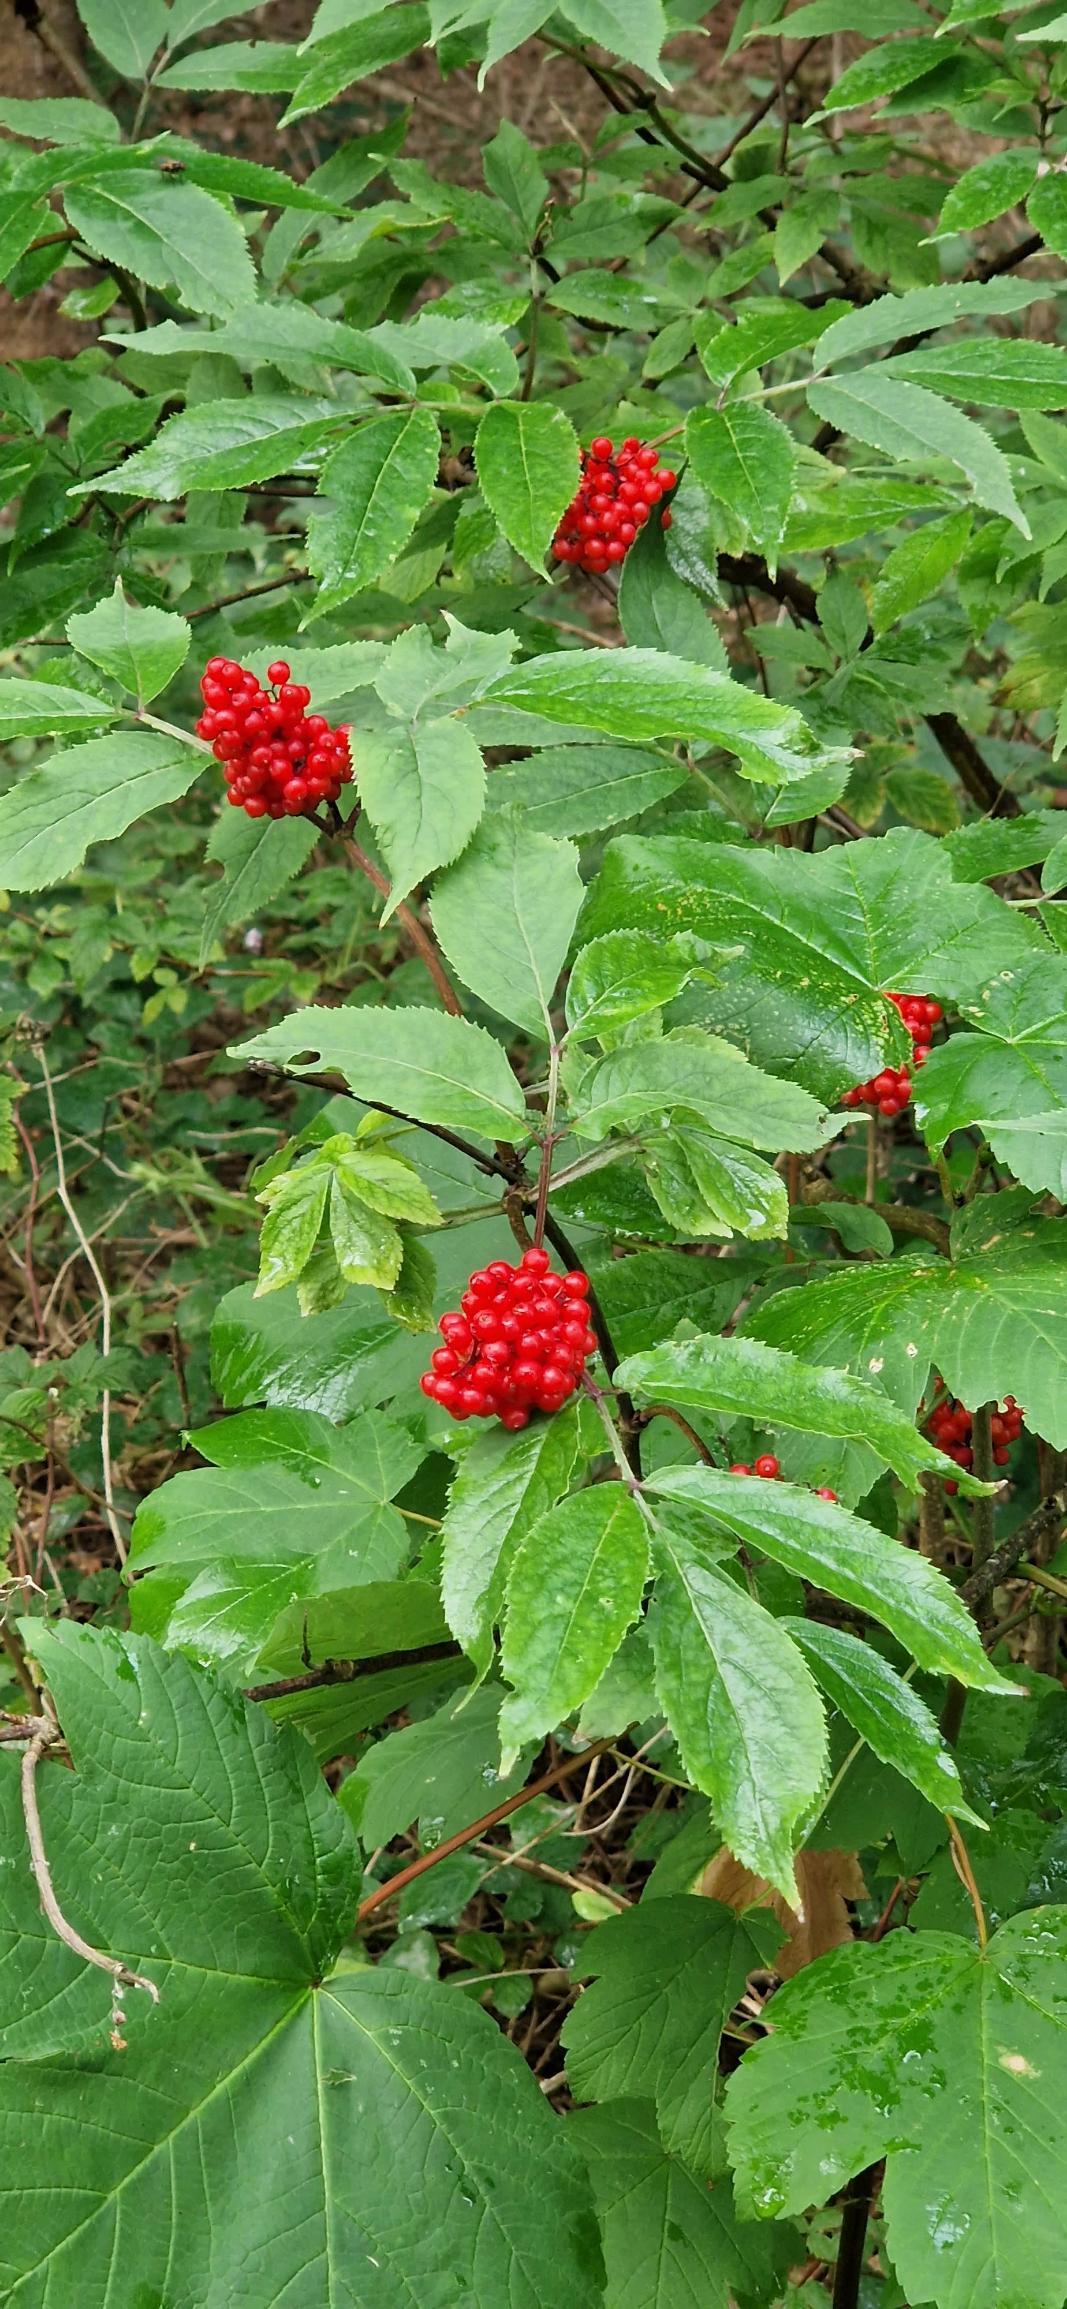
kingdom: Plantae
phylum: Tracheophyta
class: Magnoliopsida
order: Dipsacales
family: Viburnaceae
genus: Sambucus
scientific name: Sambucus racemosa
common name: Drue-hyld
